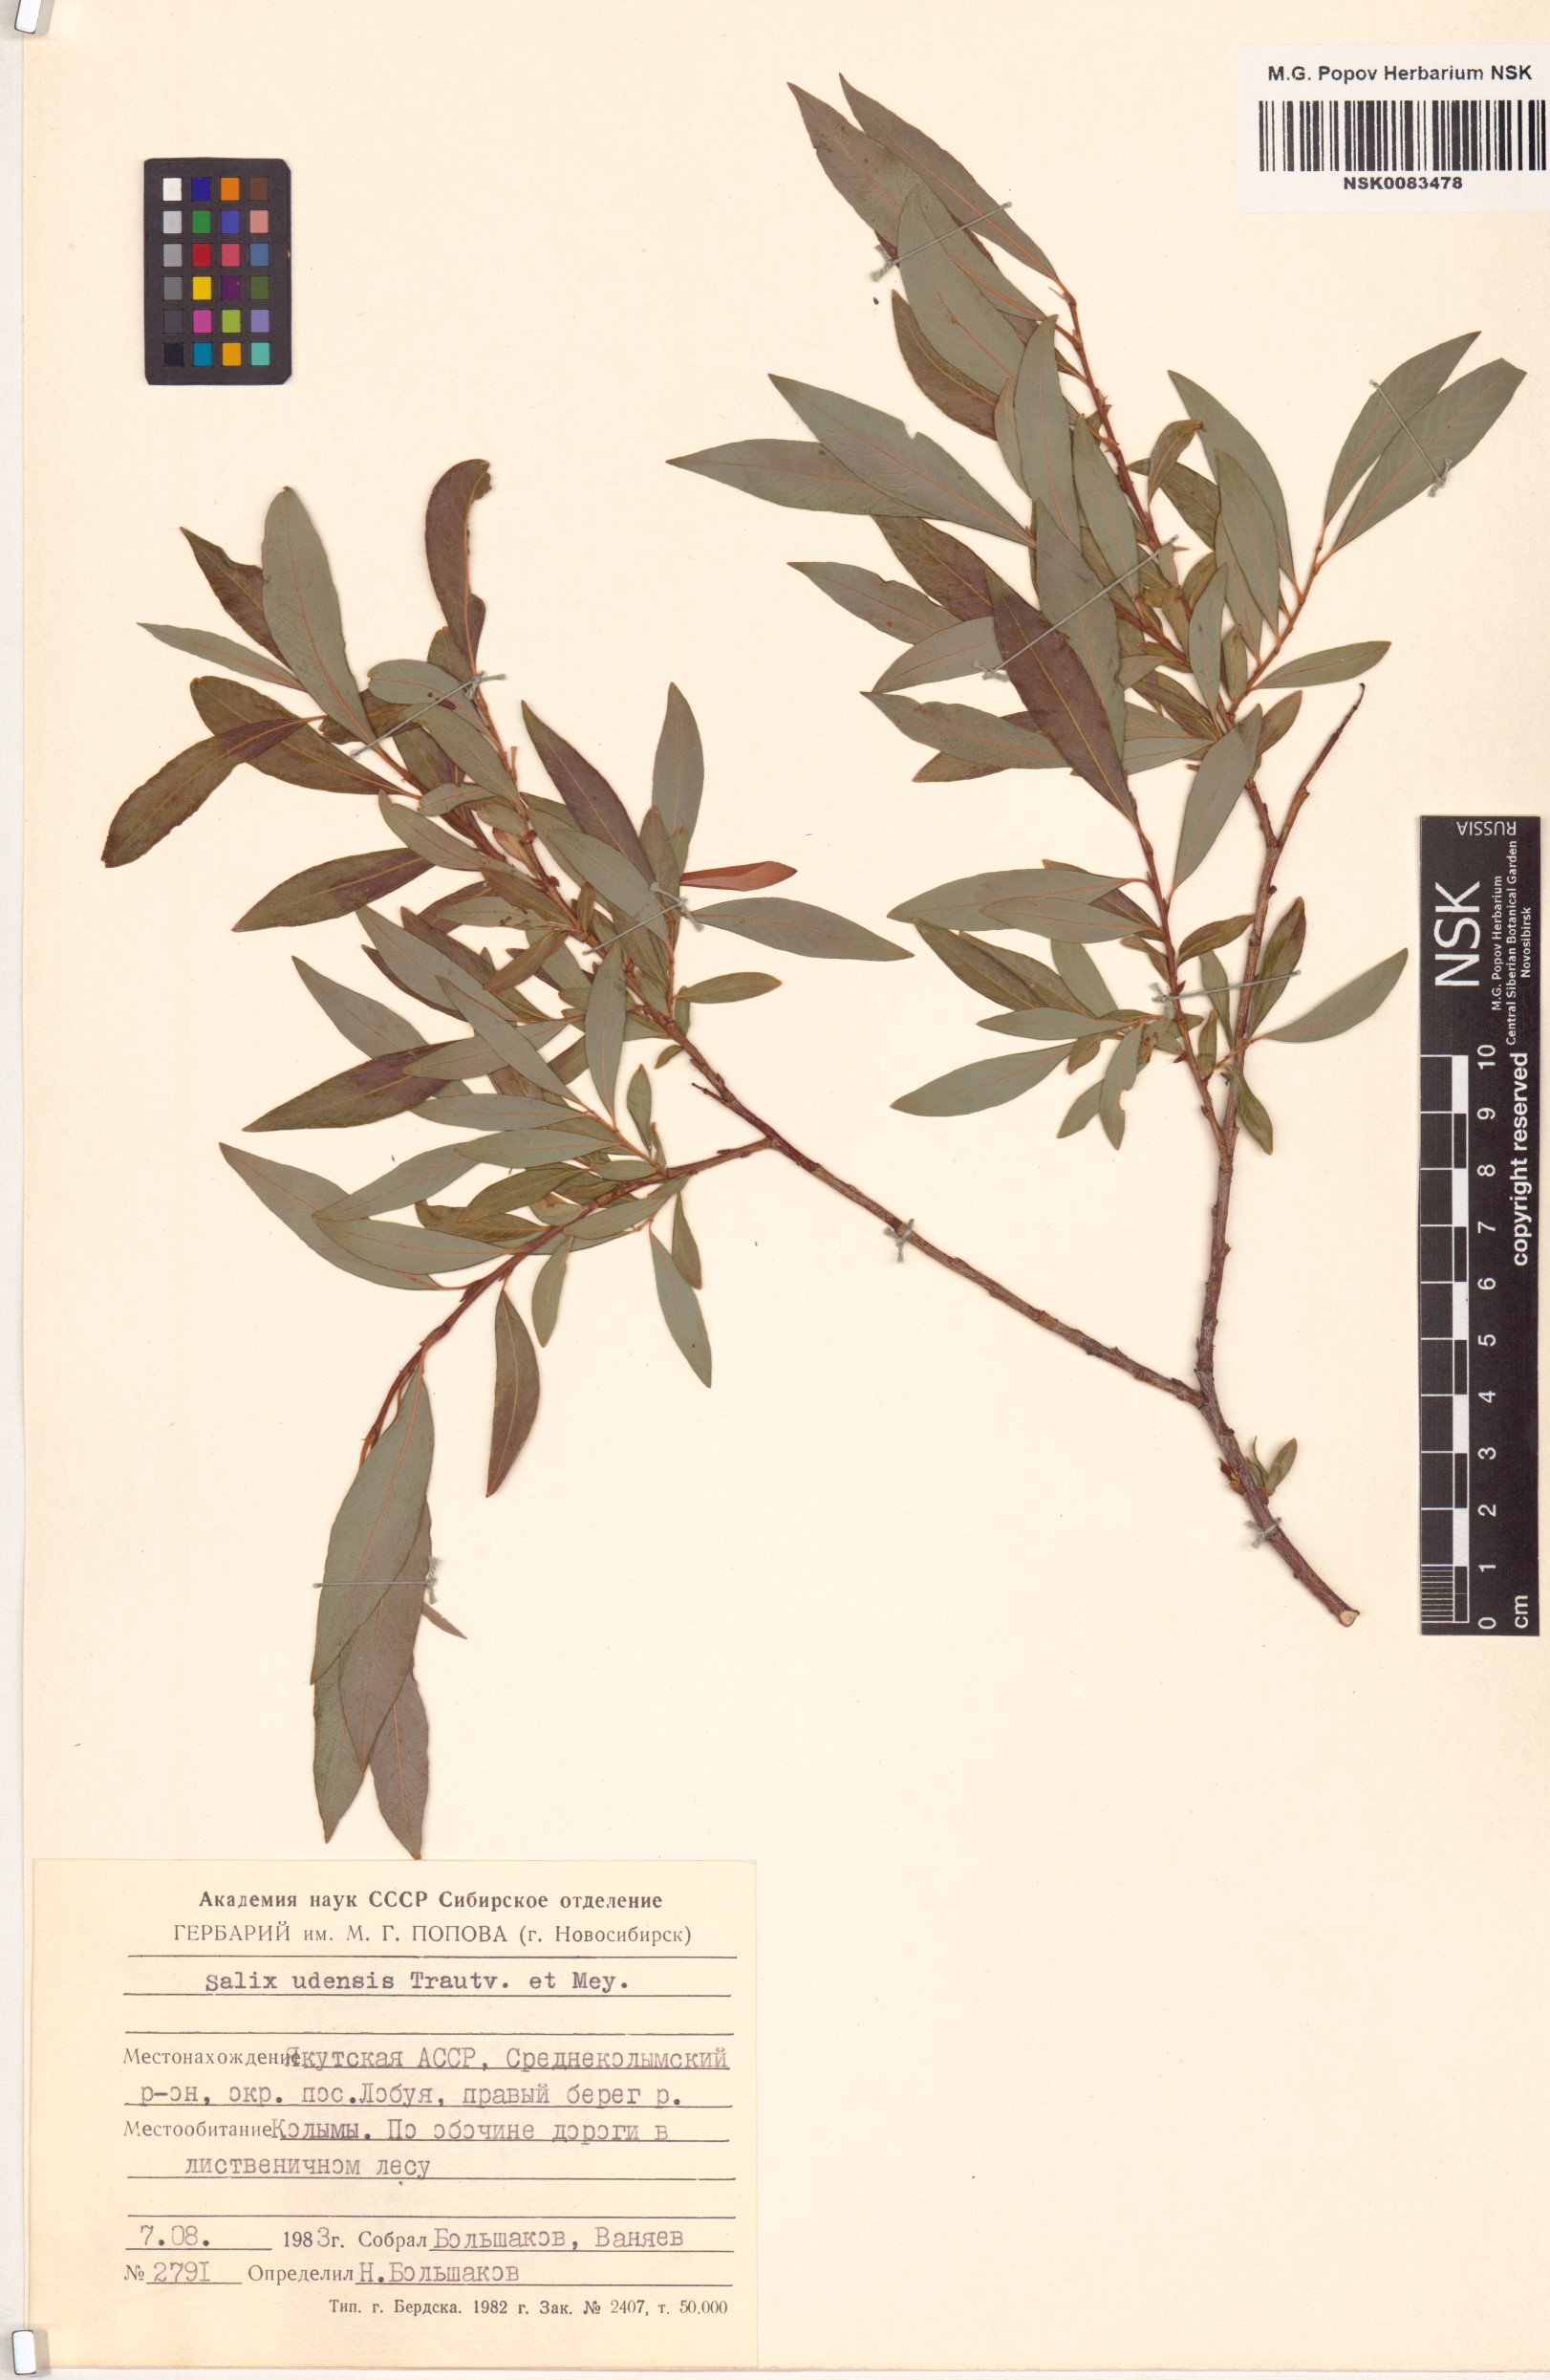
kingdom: Plantae
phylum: Tracheophyta
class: Magnoliopsida
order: Malpighiales
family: Salicaceae
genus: Salix
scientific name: Salix udensis
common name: Sachalin willow
